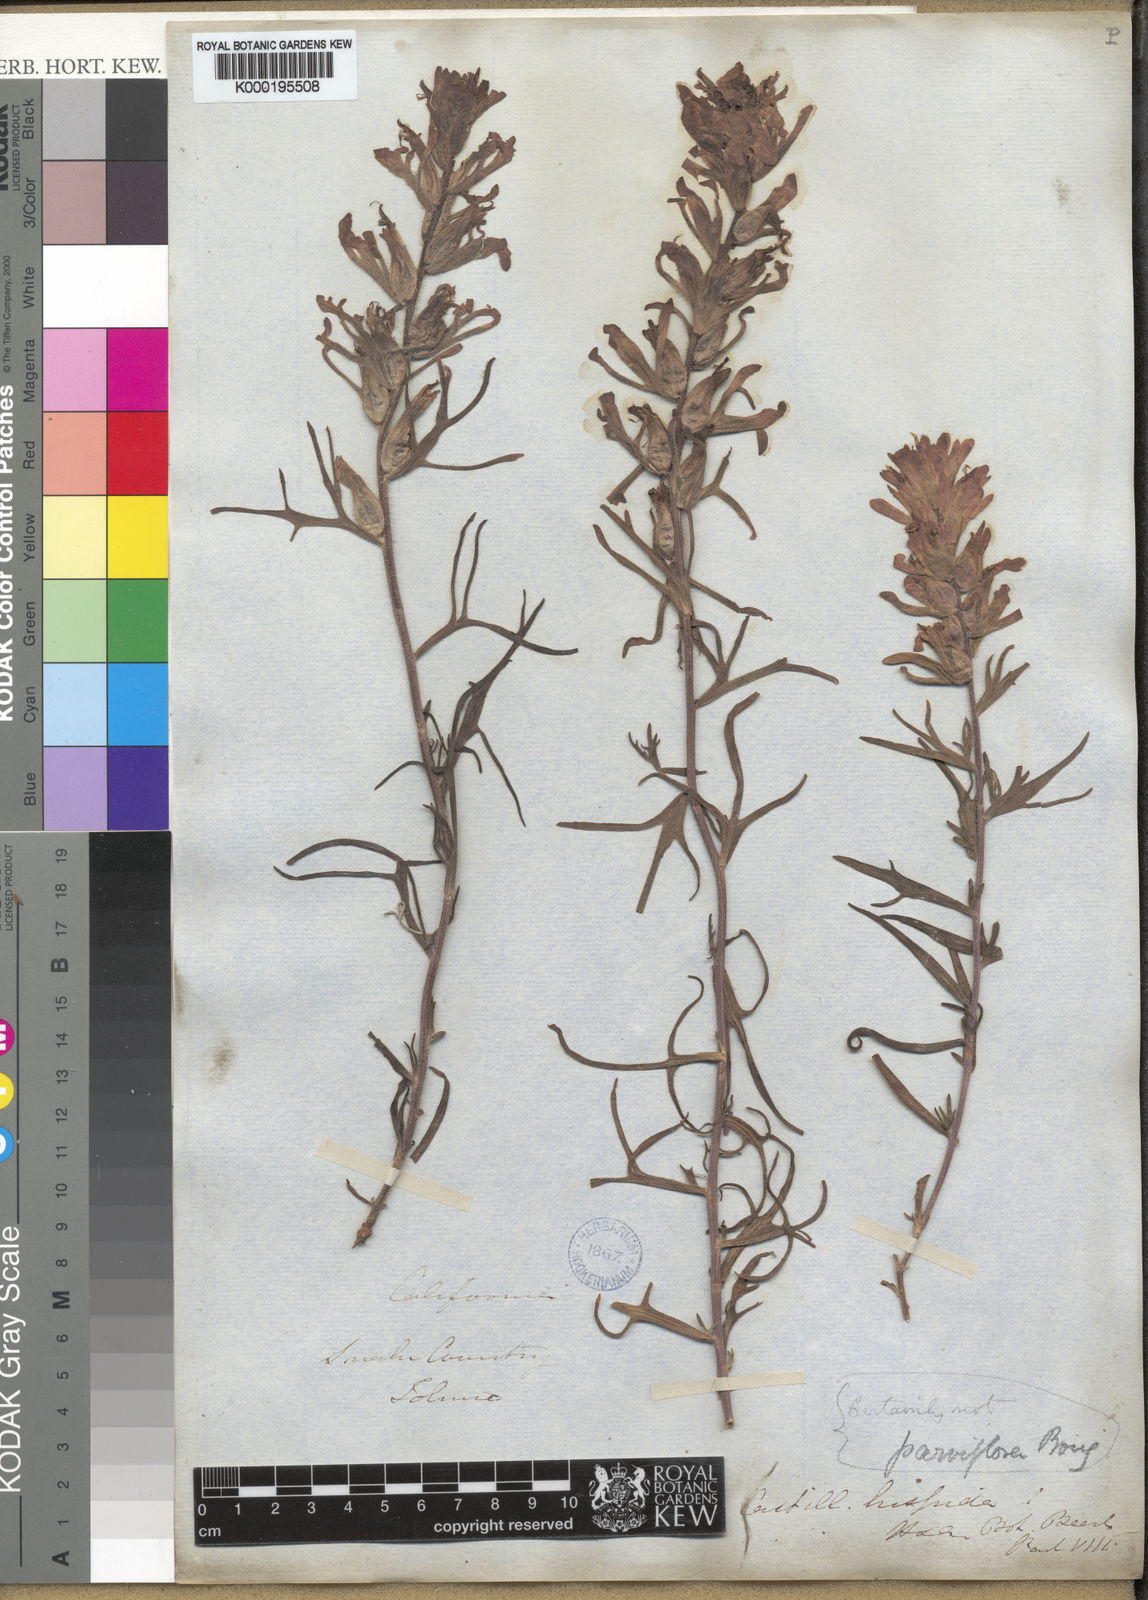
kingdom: Plantae
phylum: Tracheophyta
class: Magnoliopsida
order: Lamiales
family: Orobanchaceae
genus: Castilleja
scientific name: Castilleja parviflora
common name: Mountain paintbrush
